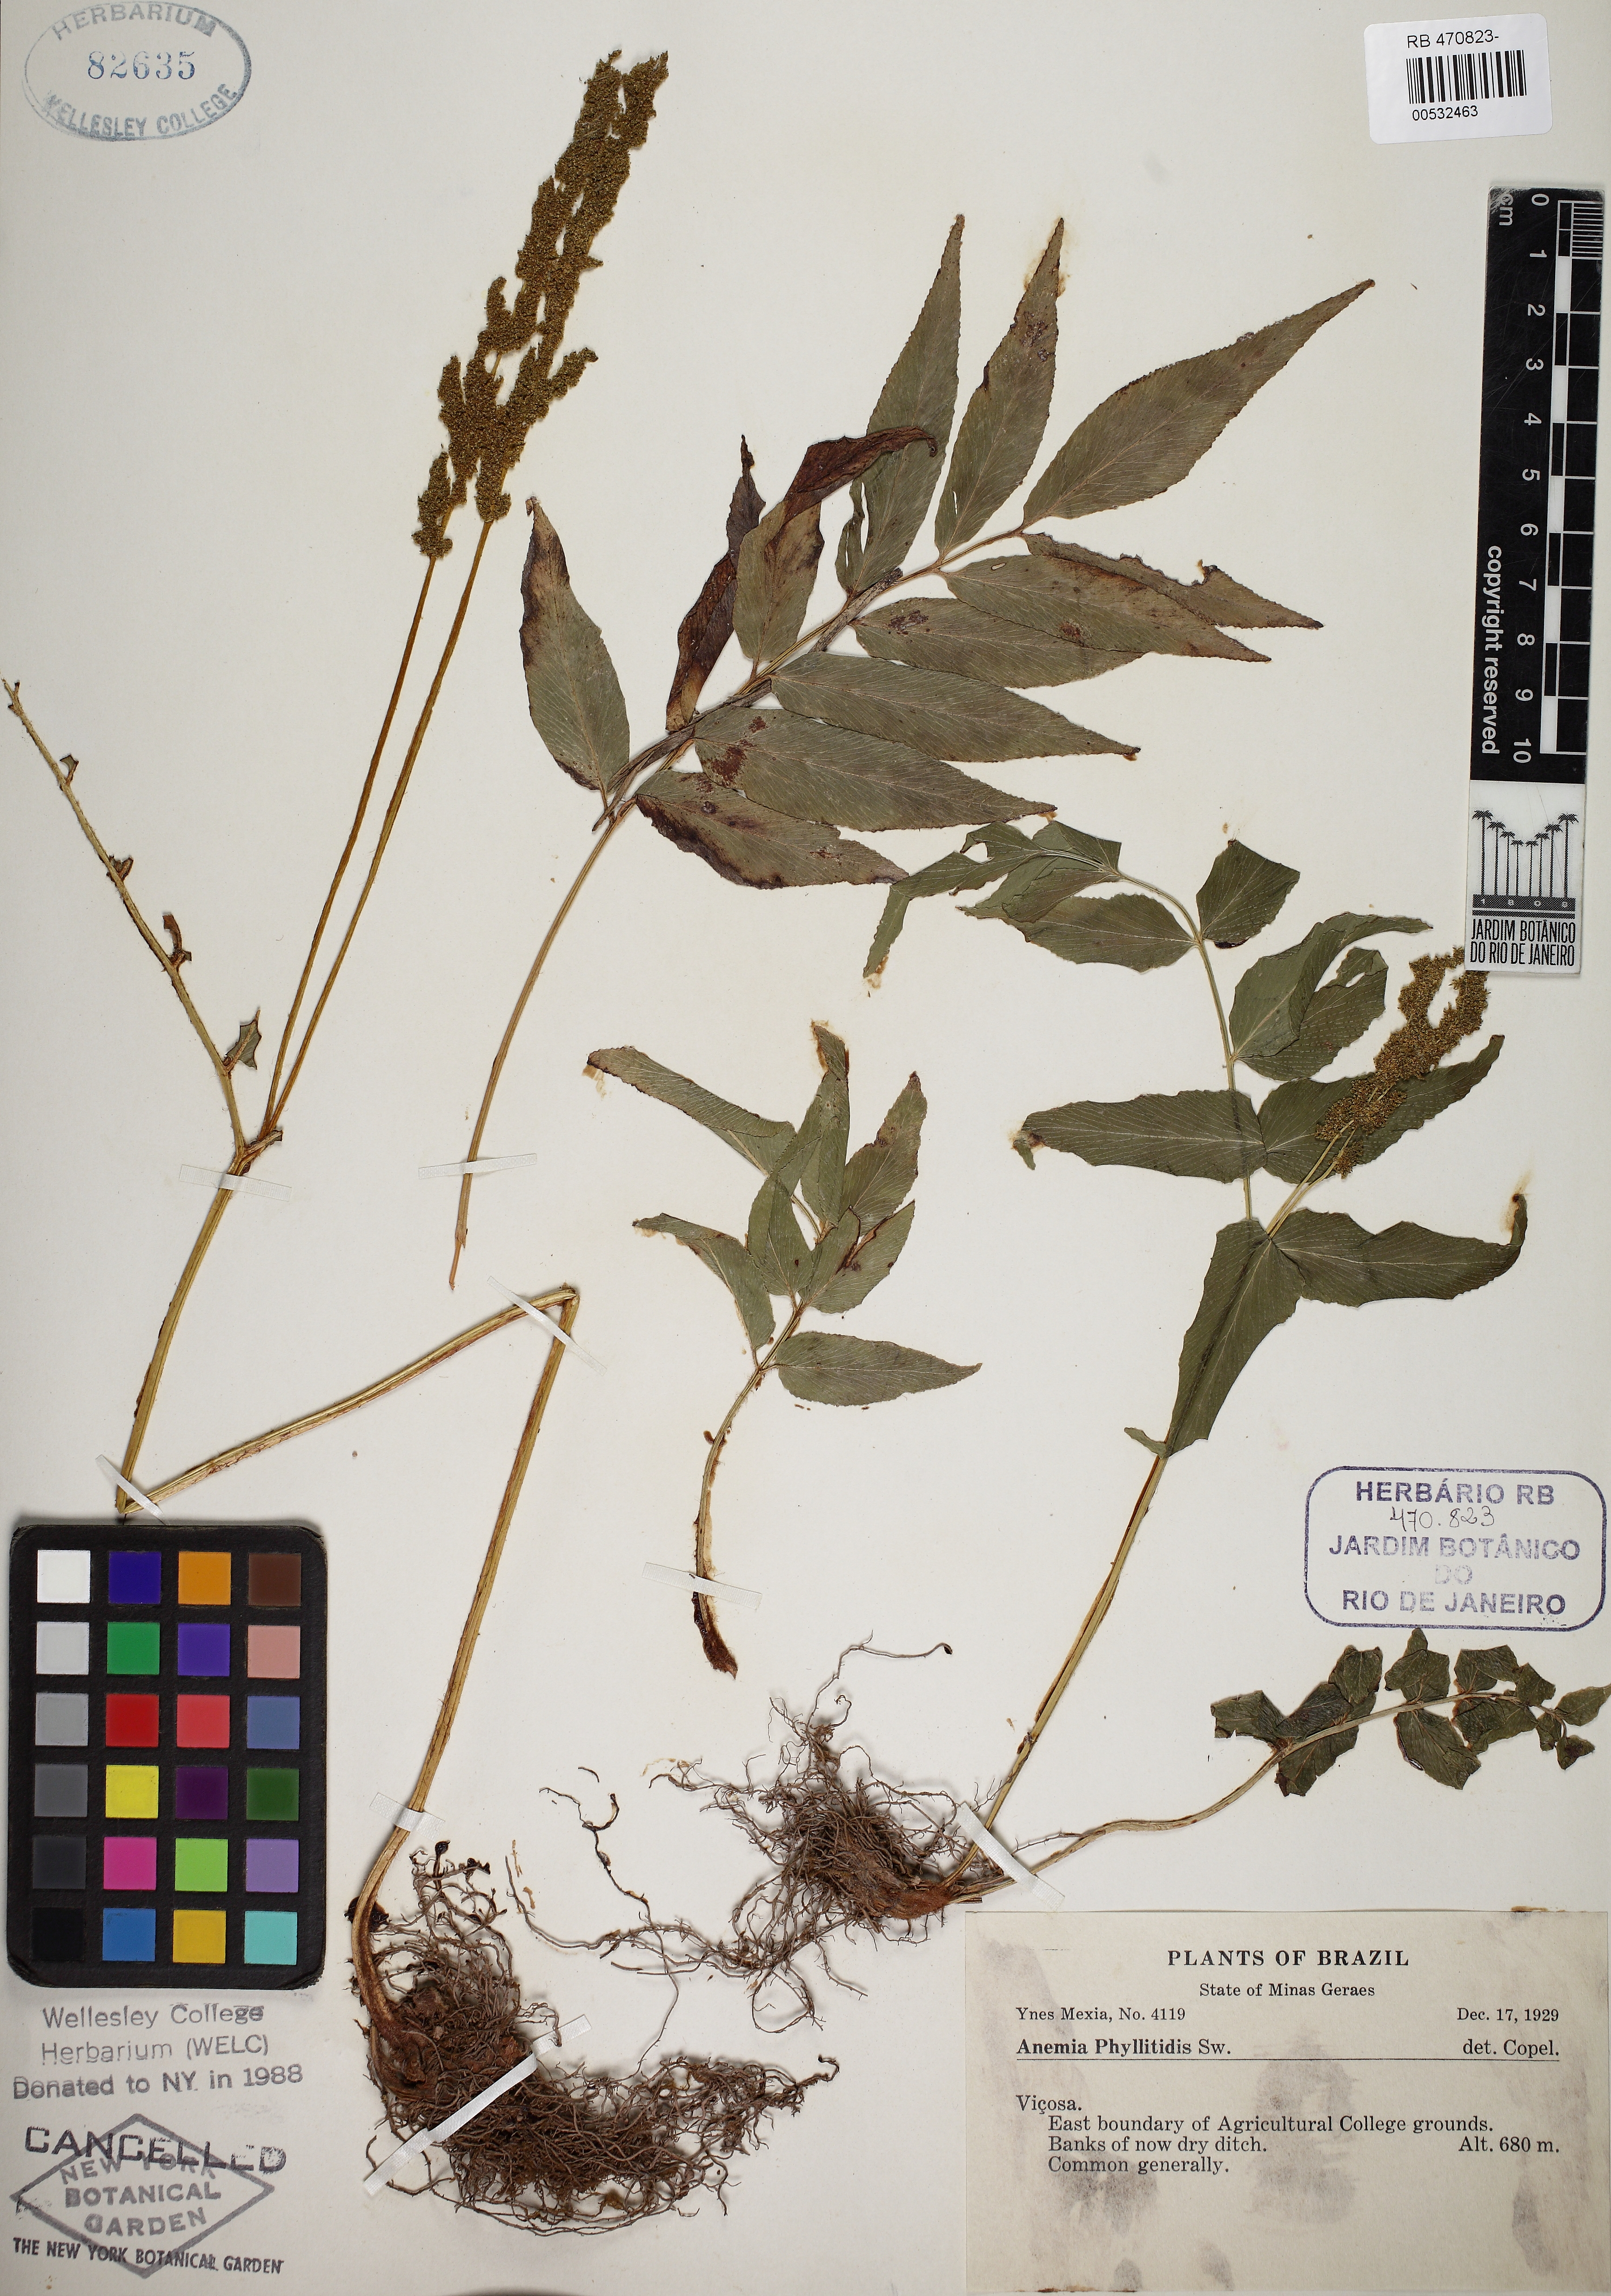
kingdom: Plantae
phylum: Tracheophyta
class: Polypodiopsida
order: Schizaeales
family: Anemiaceae
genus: Anemia
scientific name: Anemia phyllitidis
